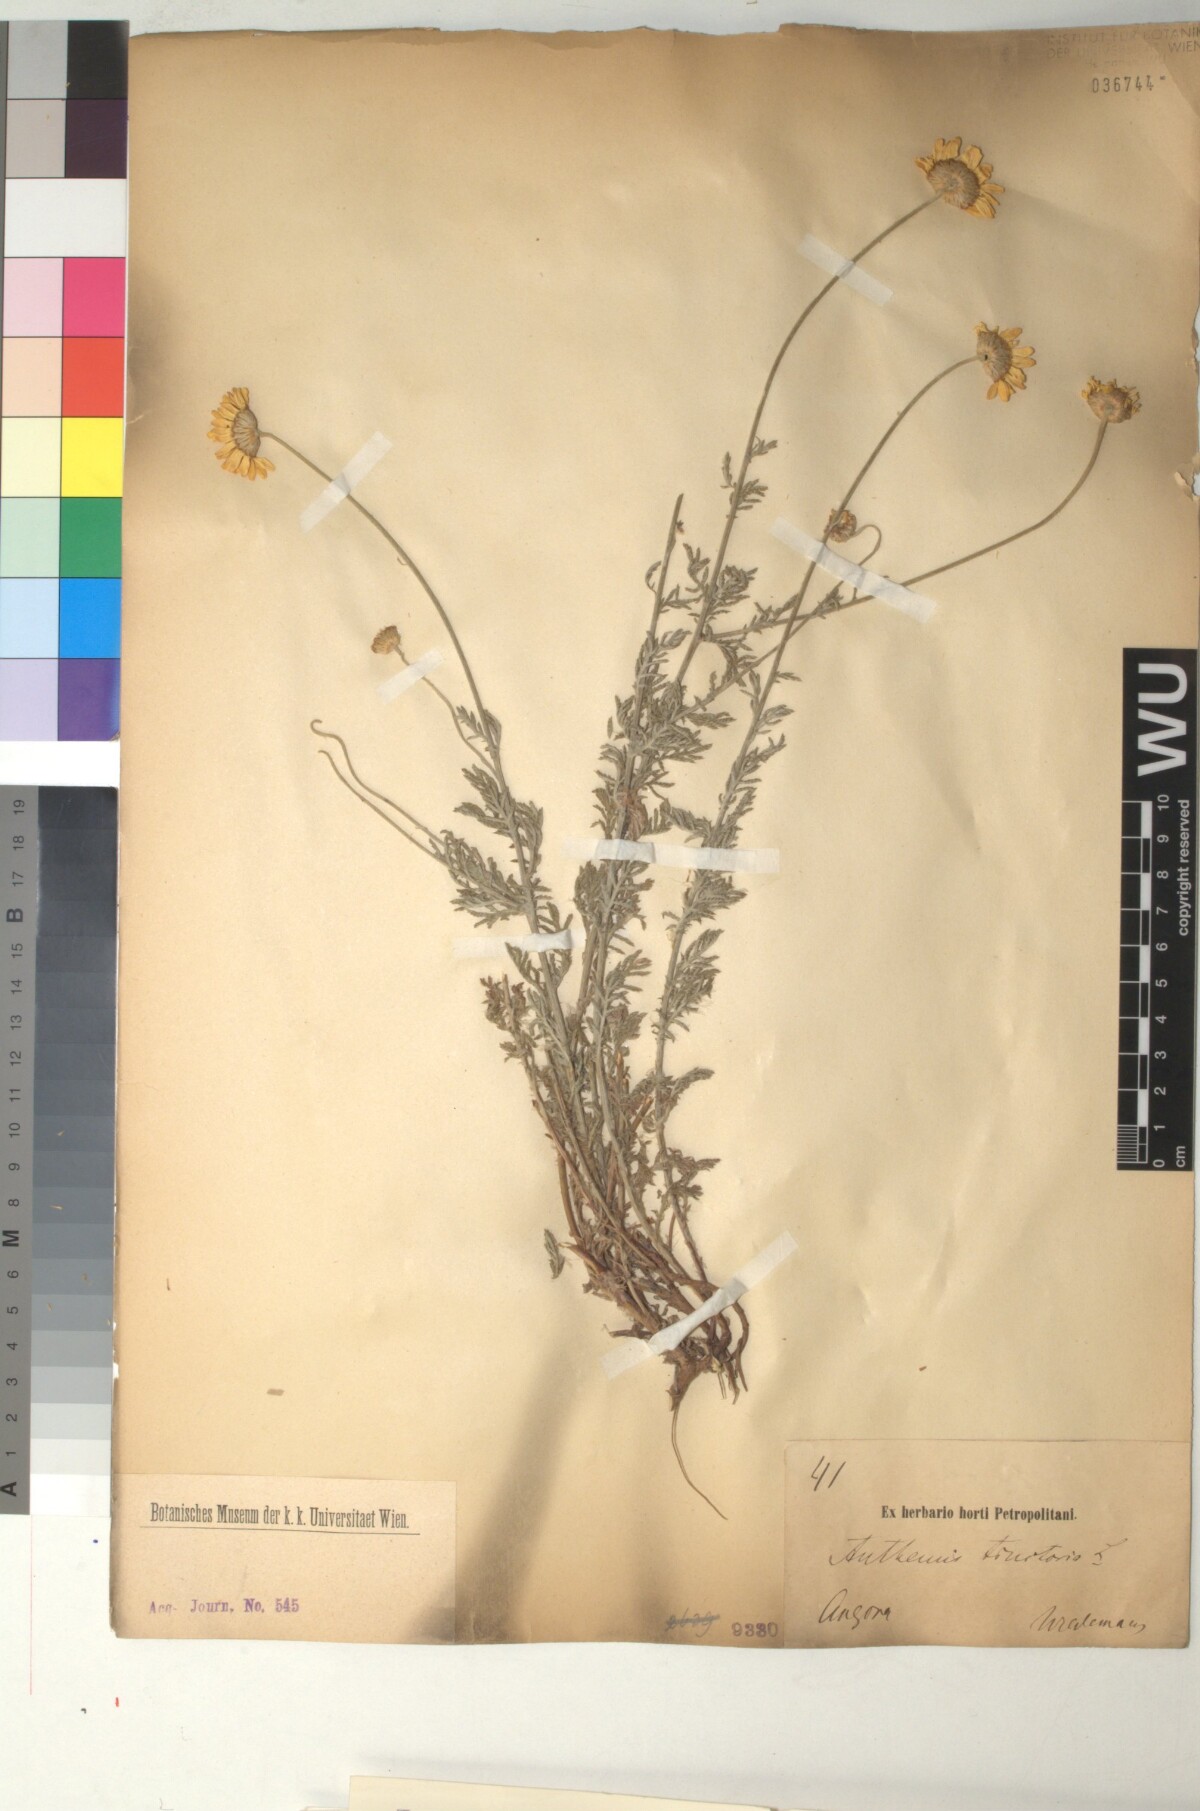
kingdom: Plantae
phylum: Tracheophyta
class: Magnoliopsida
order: Asterales
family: Asteraceae
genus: Cota
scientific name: Cota tinctoria
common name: Golden chamomile
